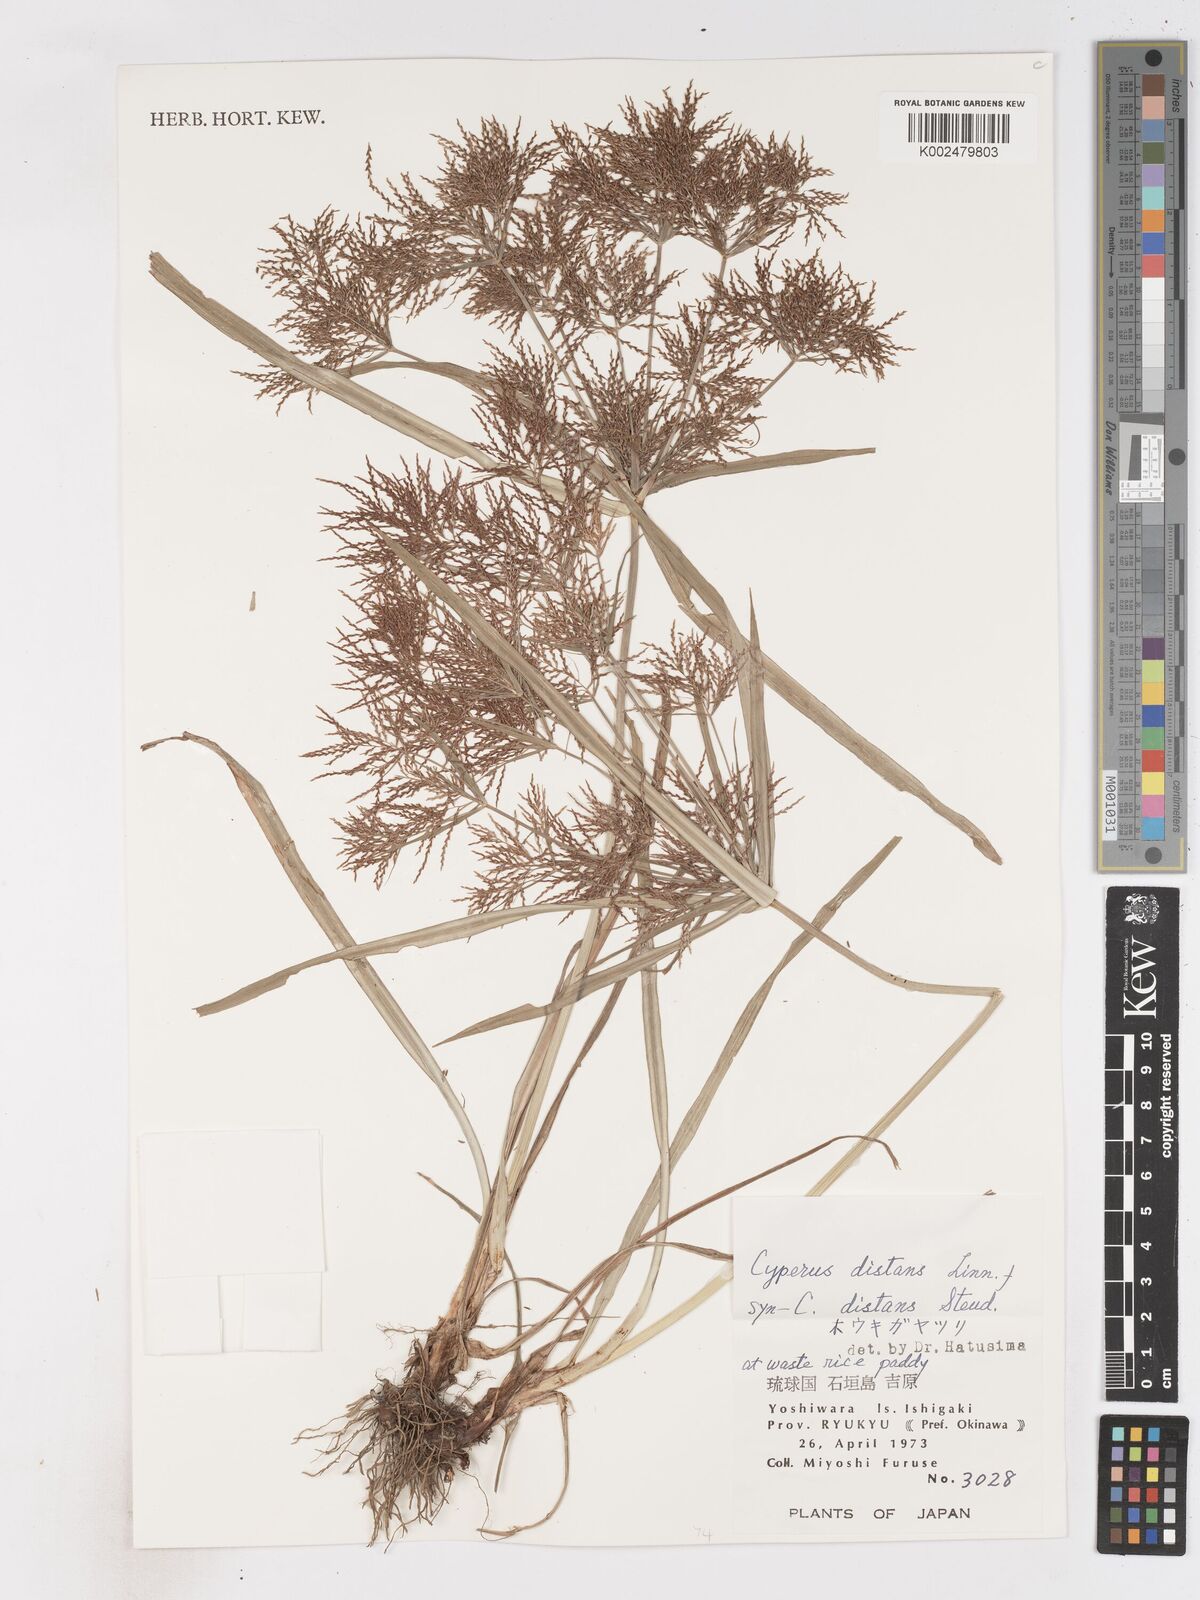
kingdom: Plantae
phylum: Tracheophyta
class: Liliopsida
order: Poales
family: Cyperaceae
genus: Cyperus
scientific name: Cyperus distans
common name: Slender cyperus
